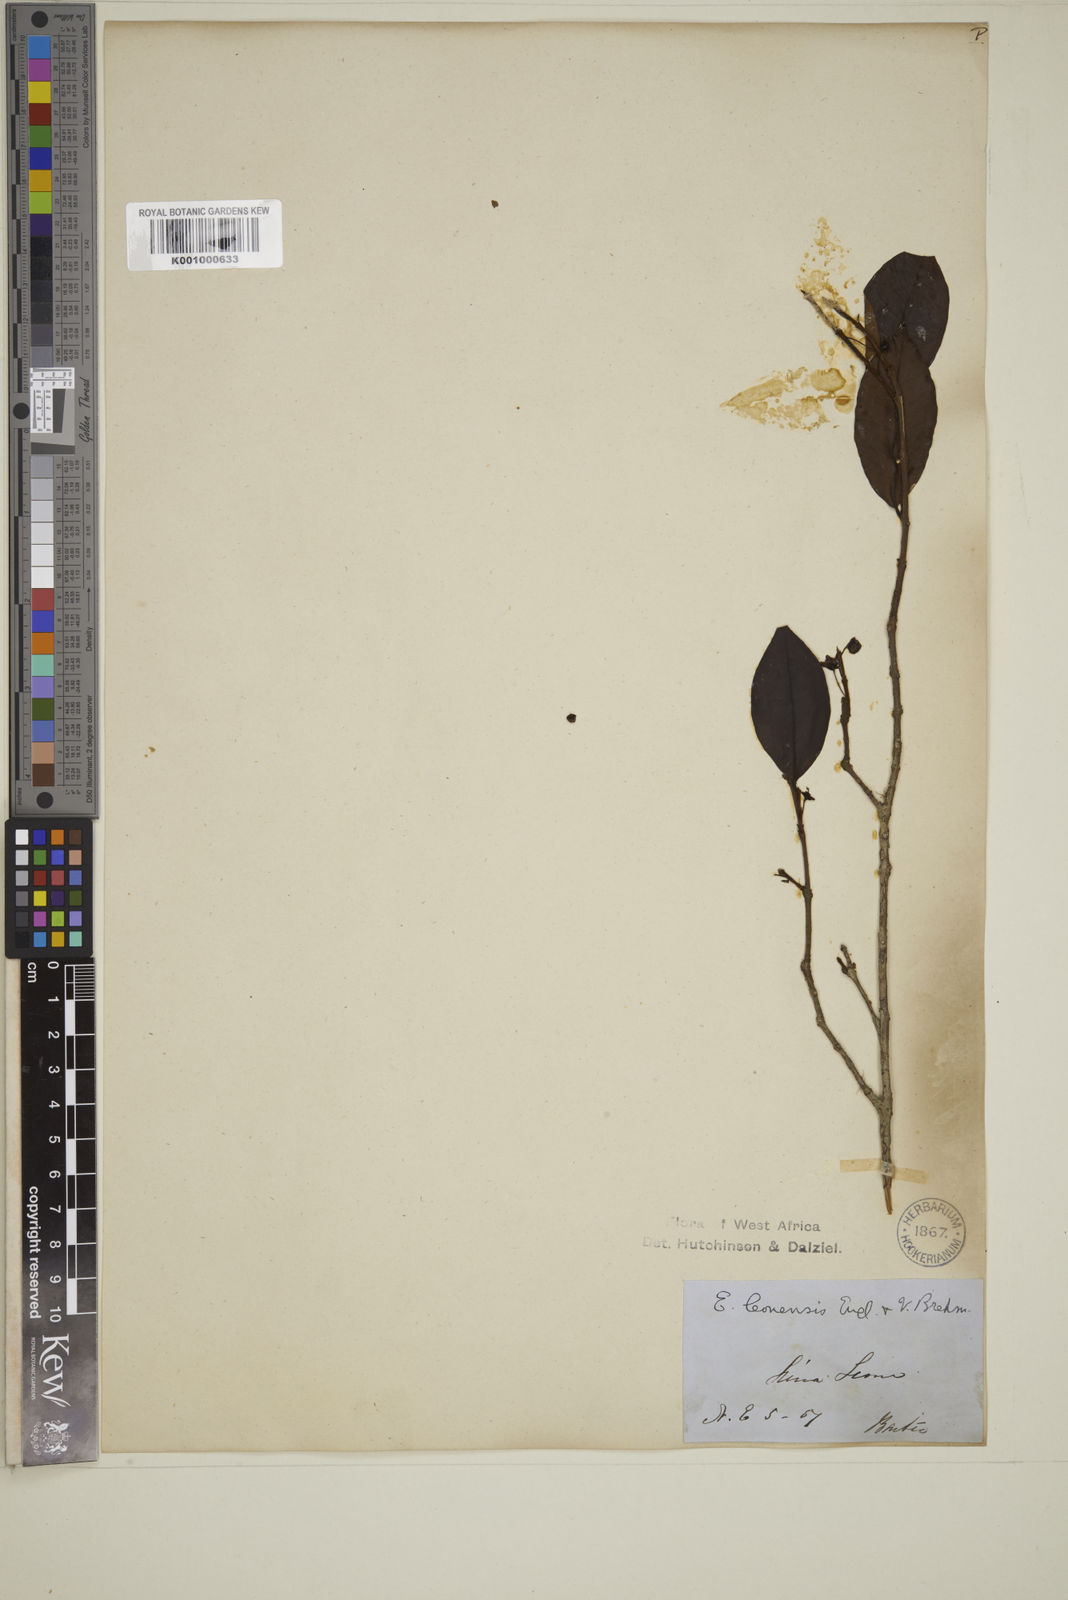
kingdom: Plantae
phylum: Tracheophyta
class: Magnoliopsida
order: Myrtales
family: Myrtaceae
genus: Eugenia
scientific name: Eugenia leonensis
